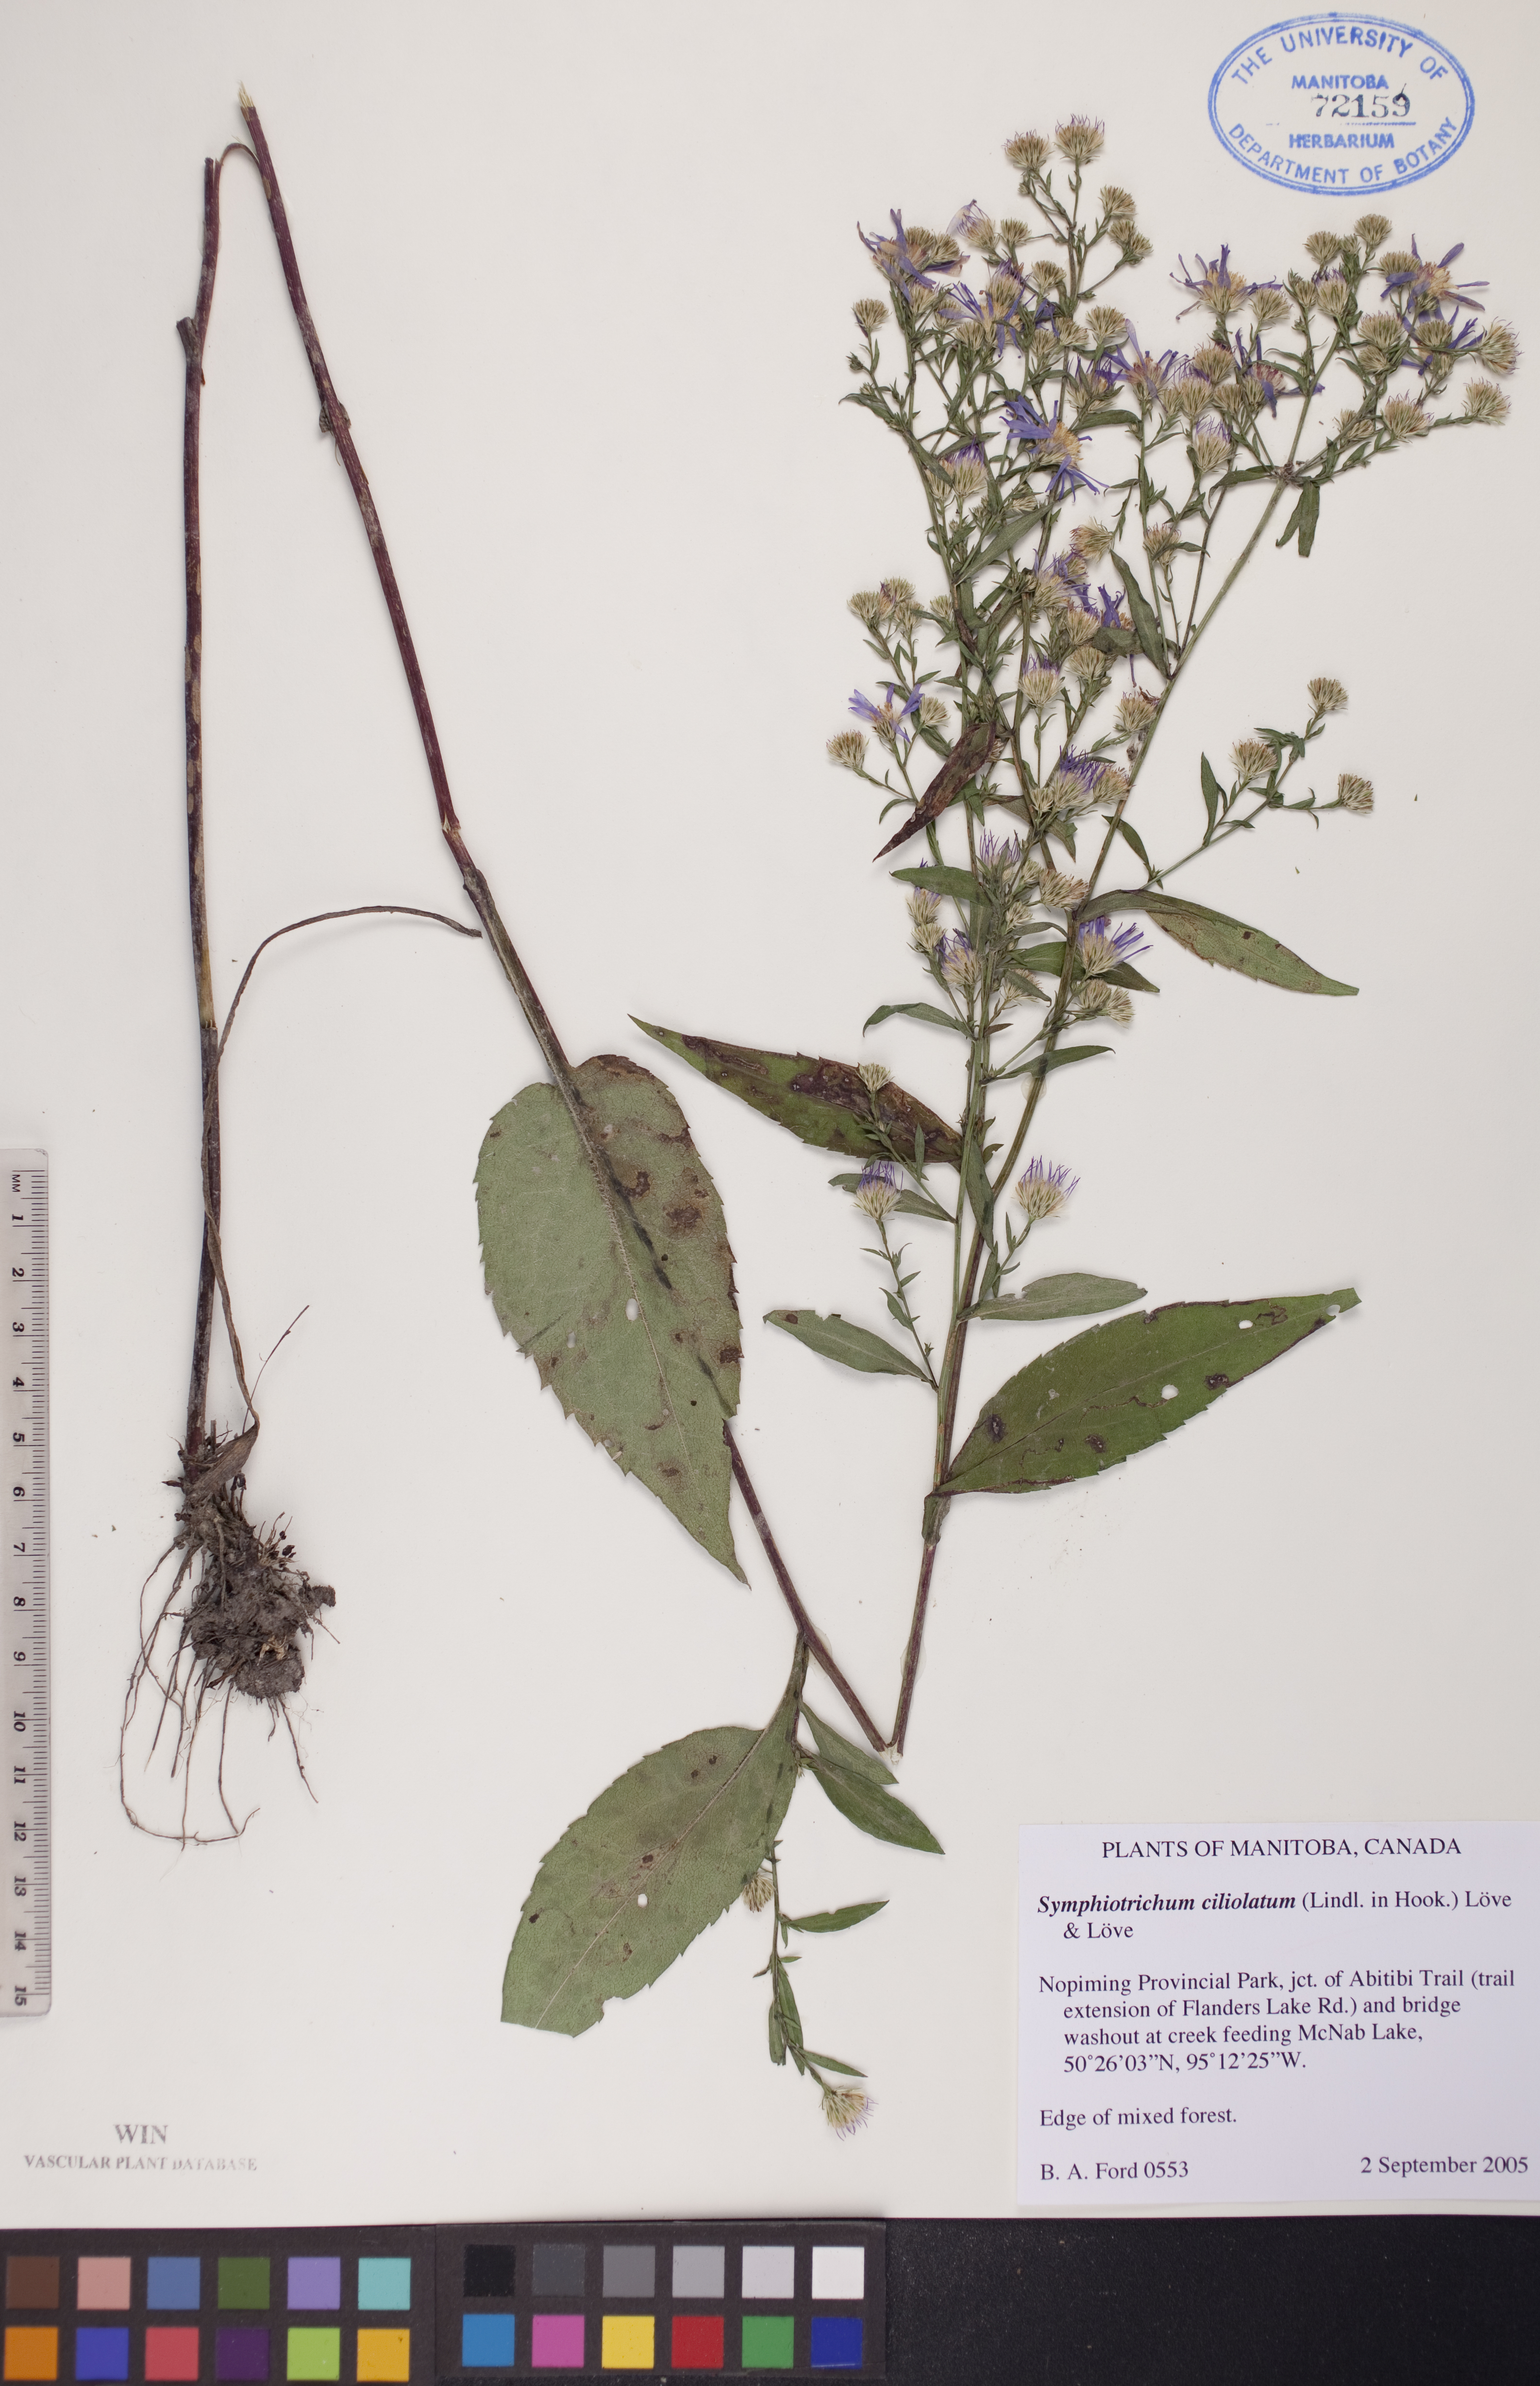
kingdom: Plantae
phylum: Tracheophyta
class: Magnoliopsida
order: Asterales
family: Asteraceae
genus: Symphyotrichum
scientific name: Symphyotrichum ciliolatum
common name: Fringed blue aster
